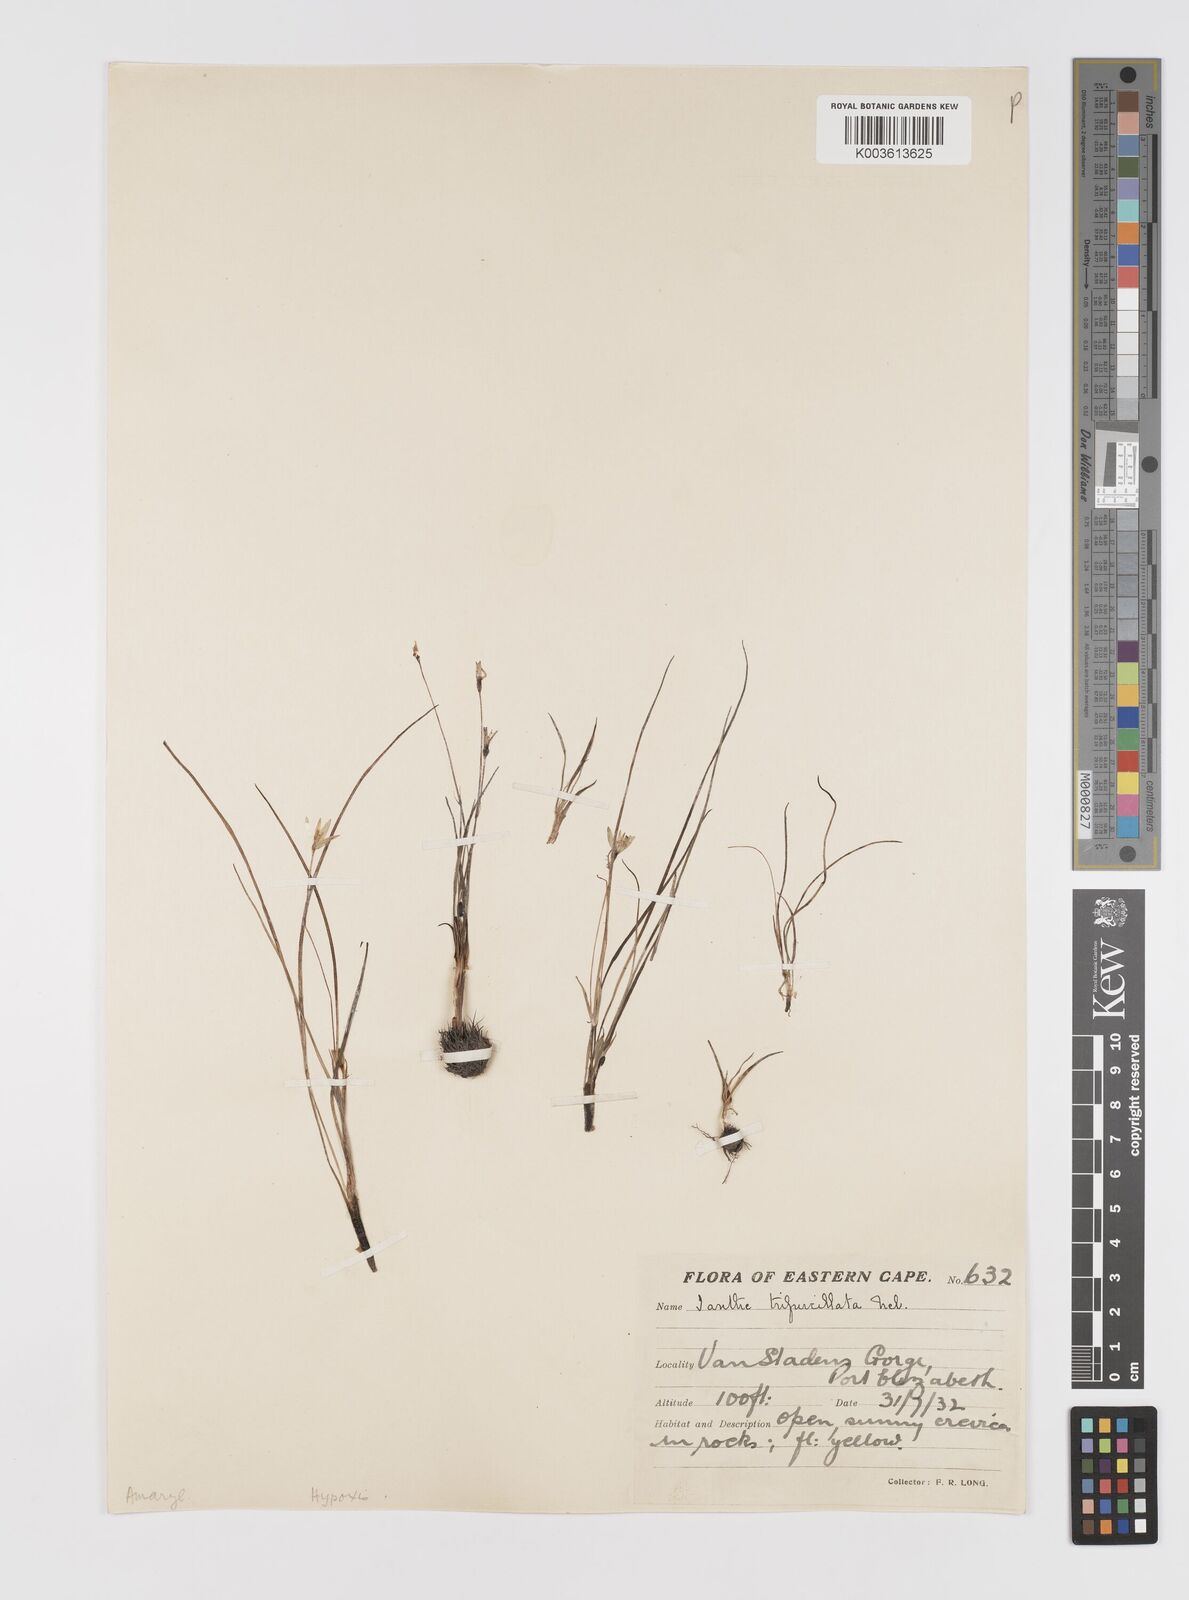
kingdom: Plantae
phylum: Tracheophyta
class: Liliopsida
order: Asparagales
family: Hypoxidaceae
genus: Pauridia
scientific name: Pauridia trifurcillata
